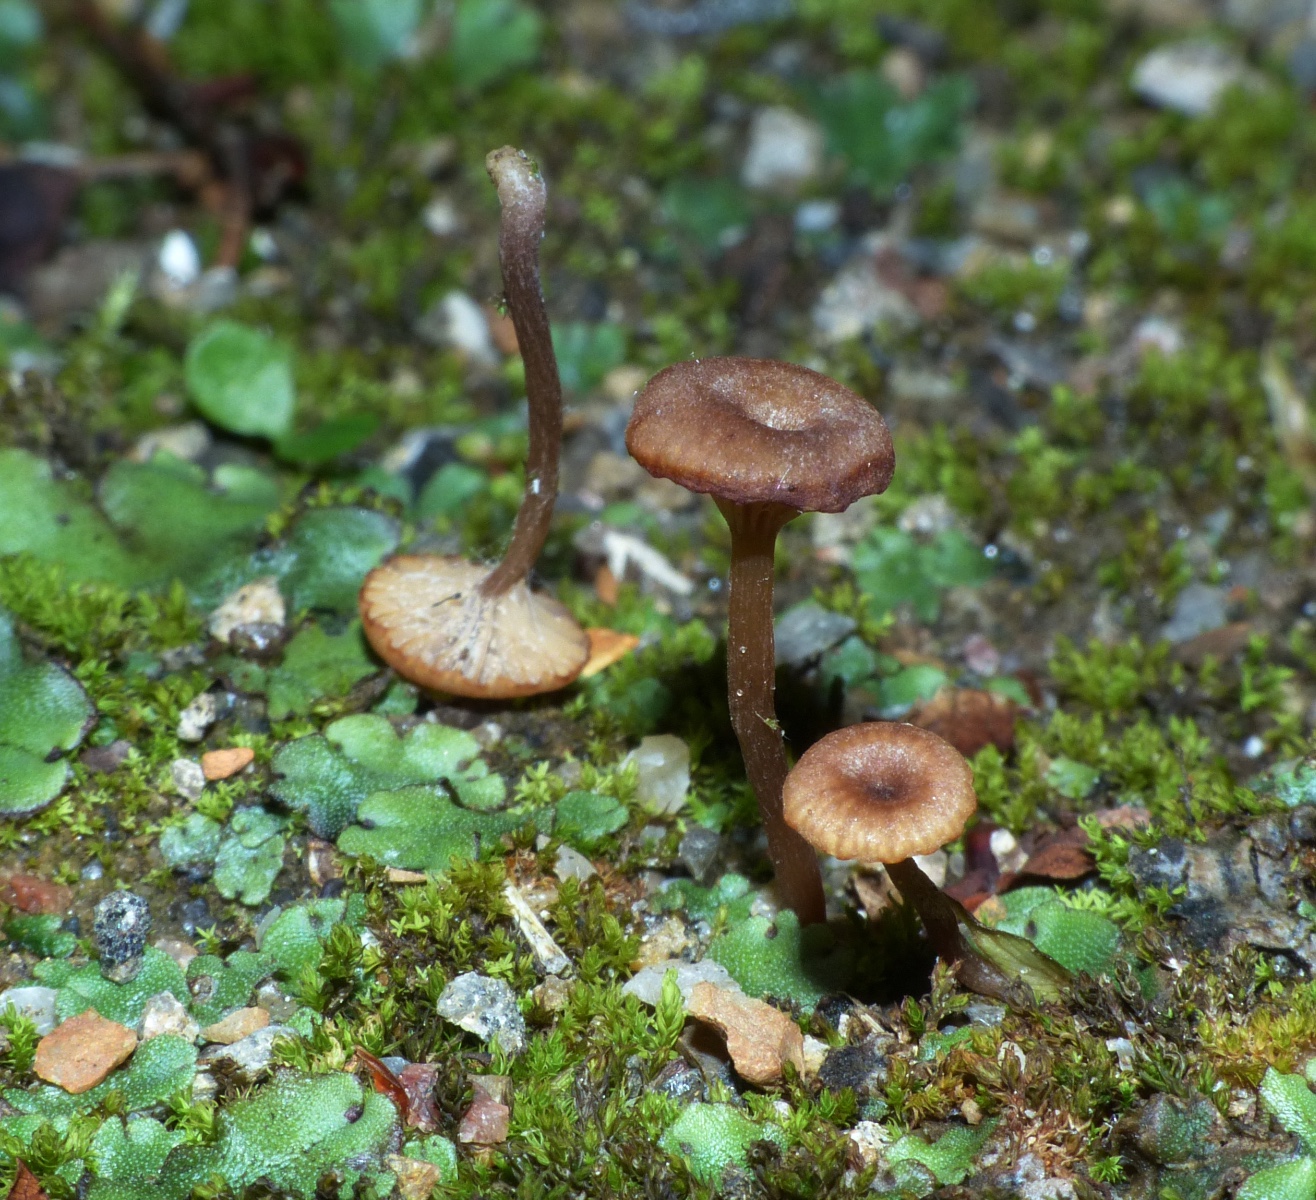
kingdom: Fungi
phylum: Basidiomycota
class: Agaricomycetes
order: Agaricales
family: Tricholomataceae
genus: Omphalina
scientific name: Omphalina
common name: navlehat
